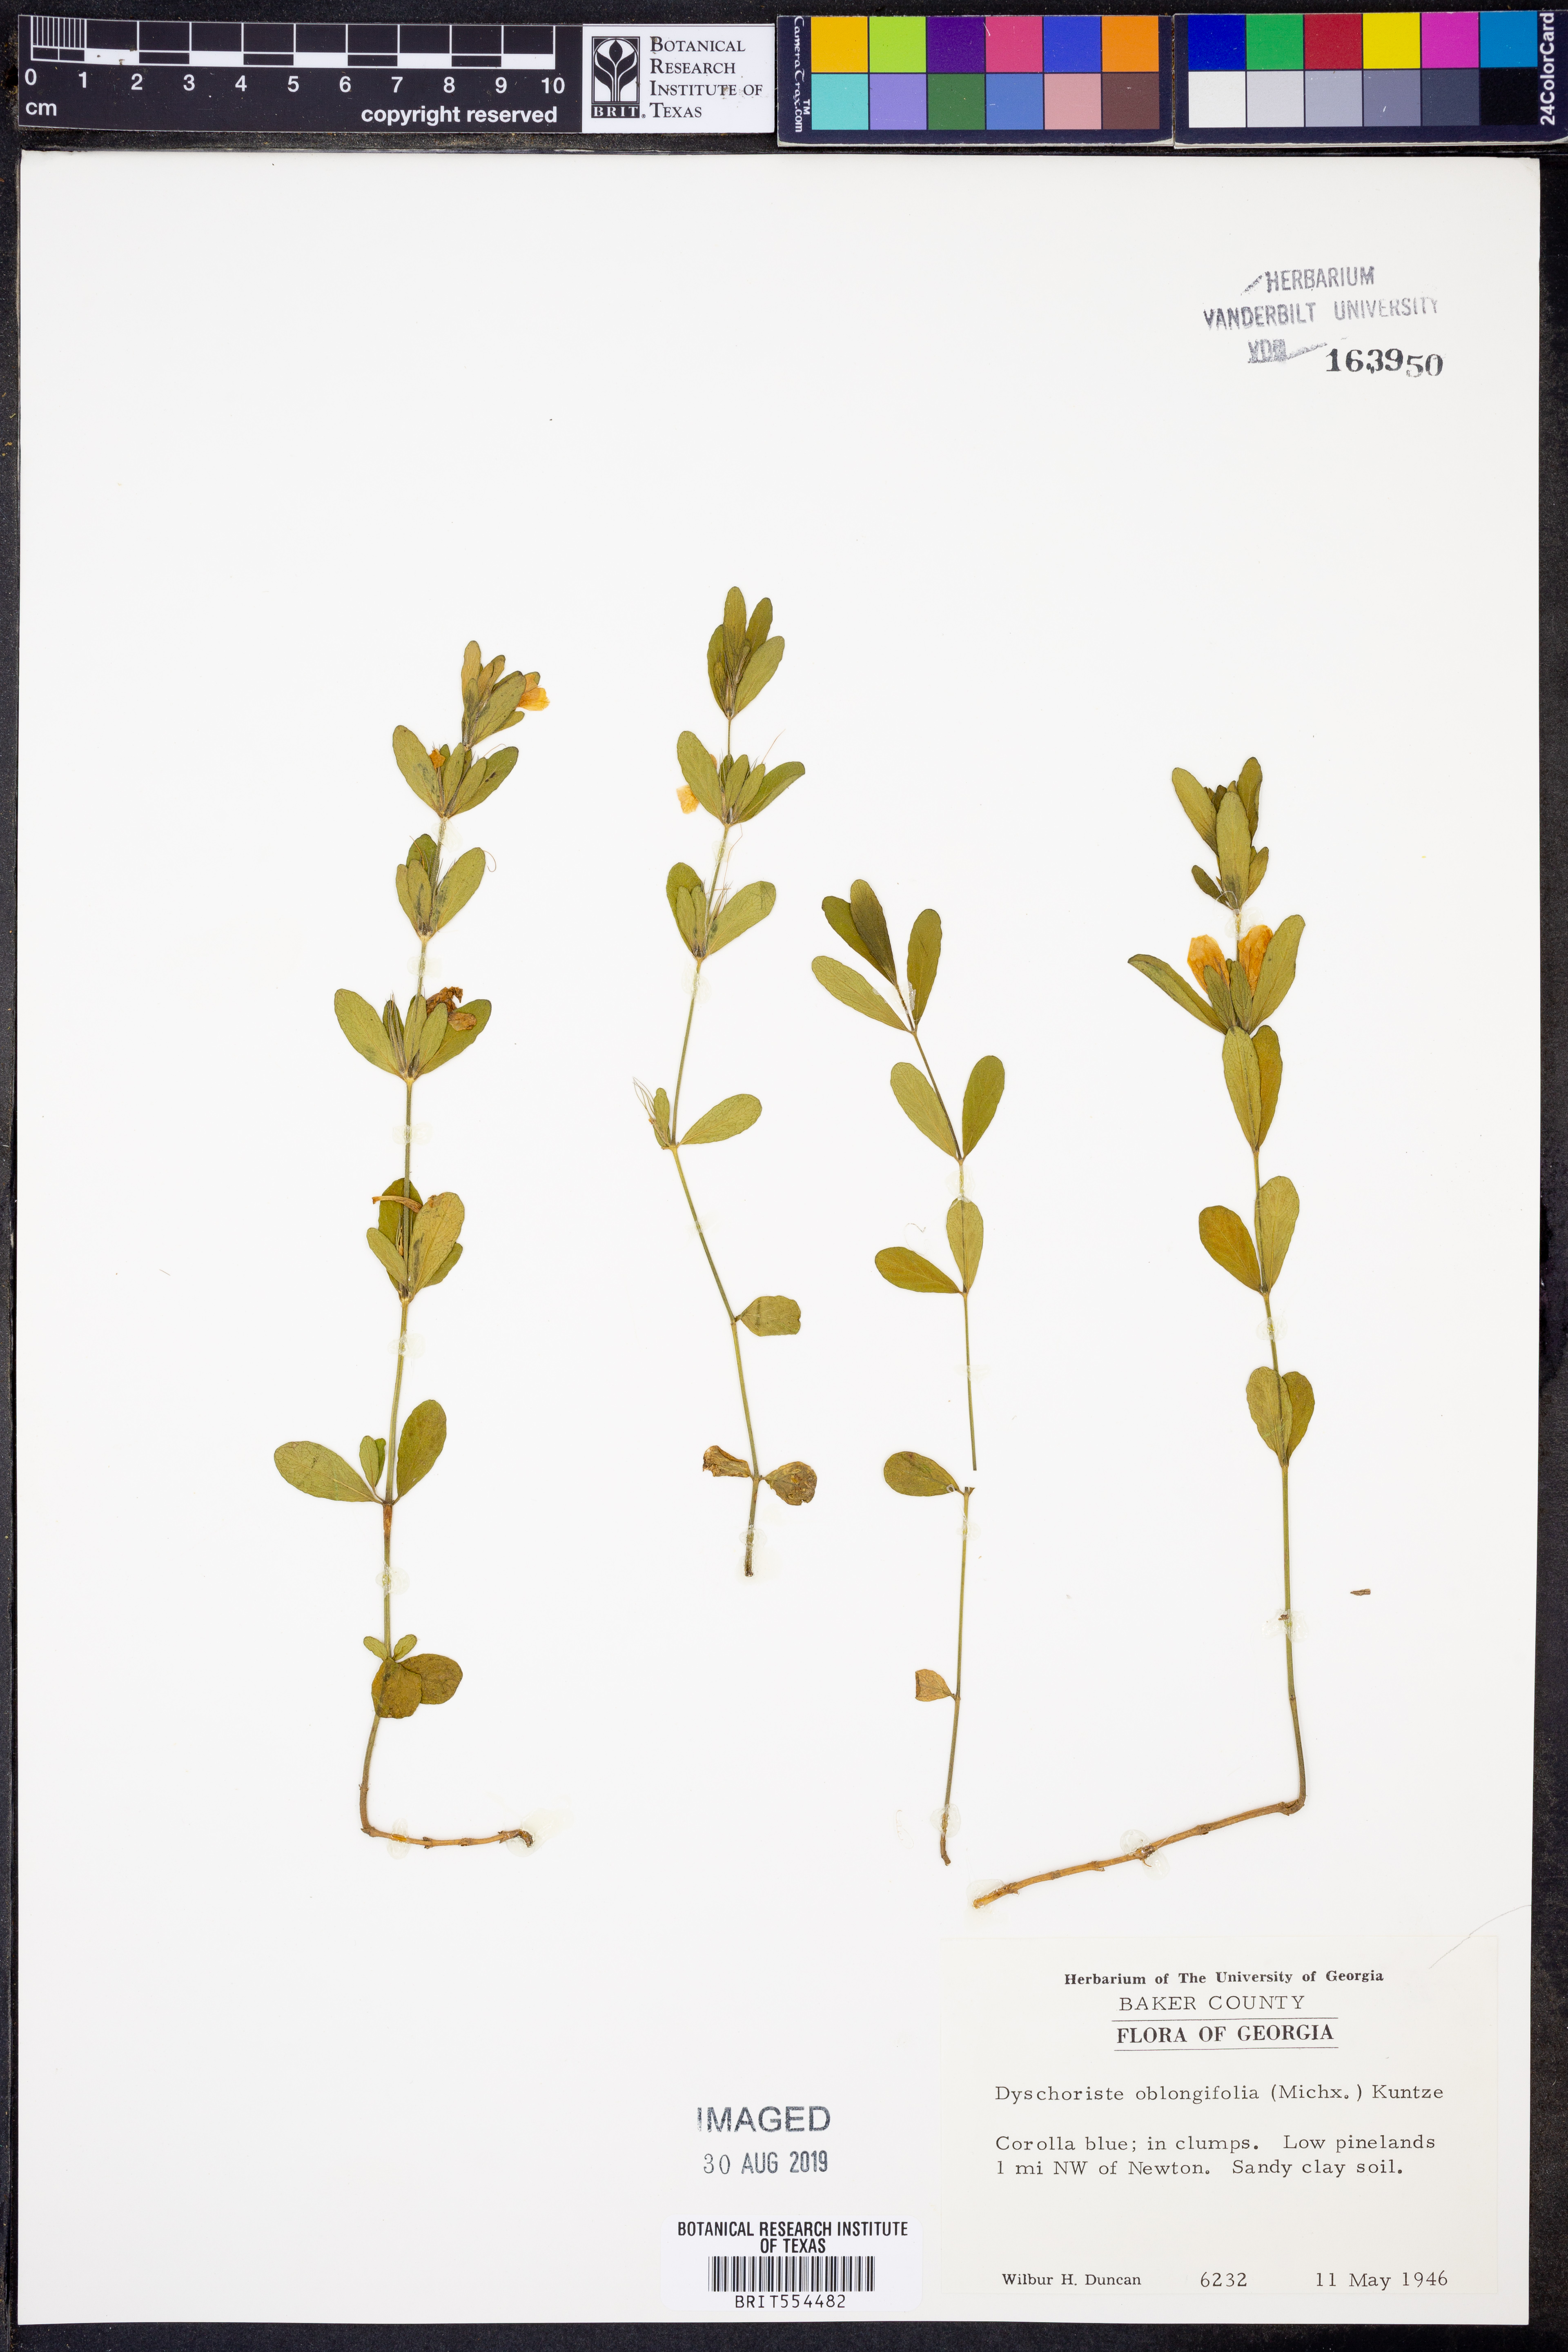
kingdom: Plantae
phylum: Tracheophyta
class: Magnoliopsida
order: Lamiales
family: Acanthaceae
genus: Dyschoriste
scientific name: Dyschoriste oblongifolia
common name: Blue twinflower
